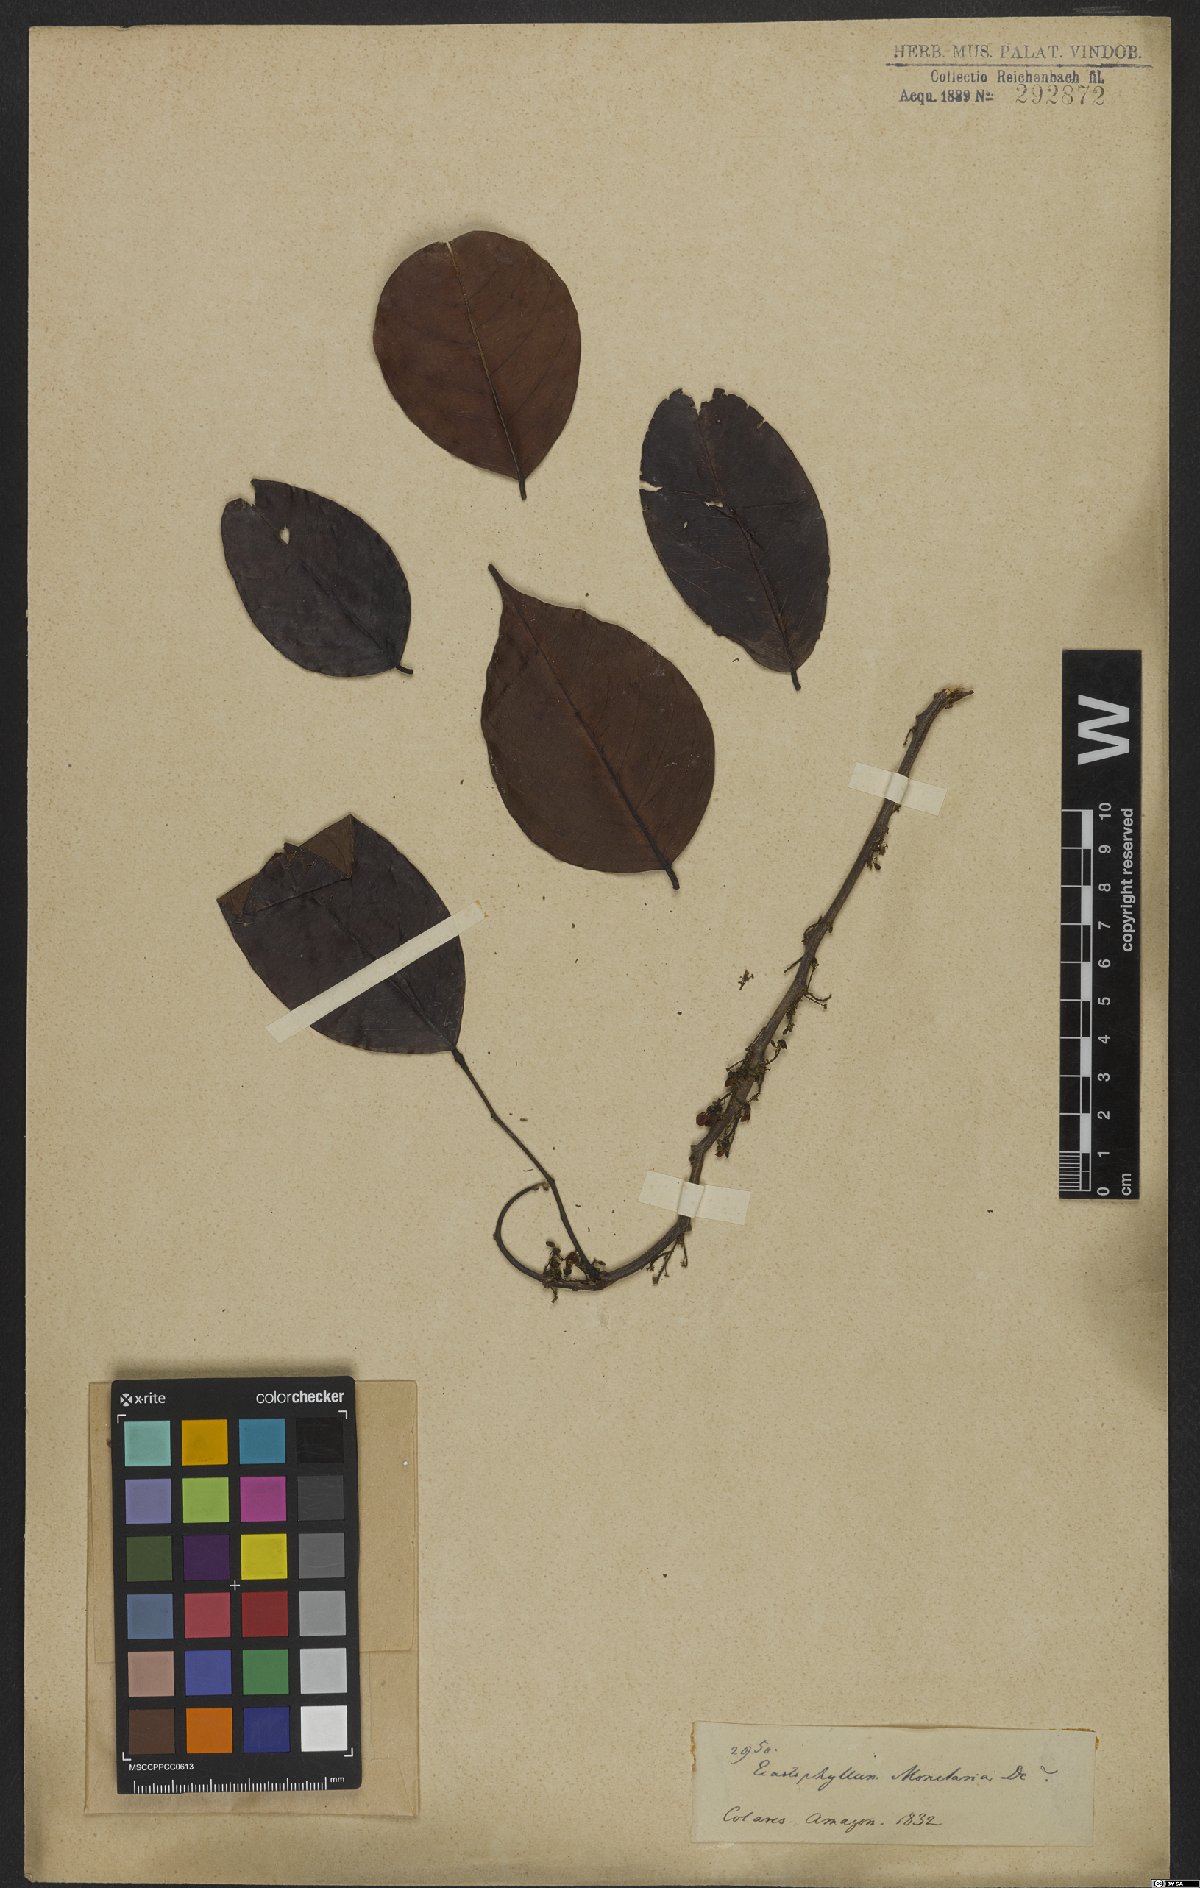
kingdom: Plantae
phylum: Tracheophyta
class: Magnoliopsida
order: Fabales
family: Fabaceae
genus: Dalbergia
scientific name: Dalbergia ovalis
